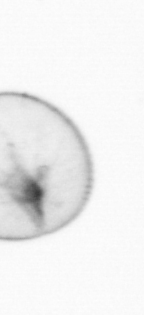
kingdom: Chromista
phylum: Myzozoa
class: Dinophyceae
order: Noctilucales
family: Noctilucaceae
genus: Noctiluca
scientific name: Noctiluca scintillans
